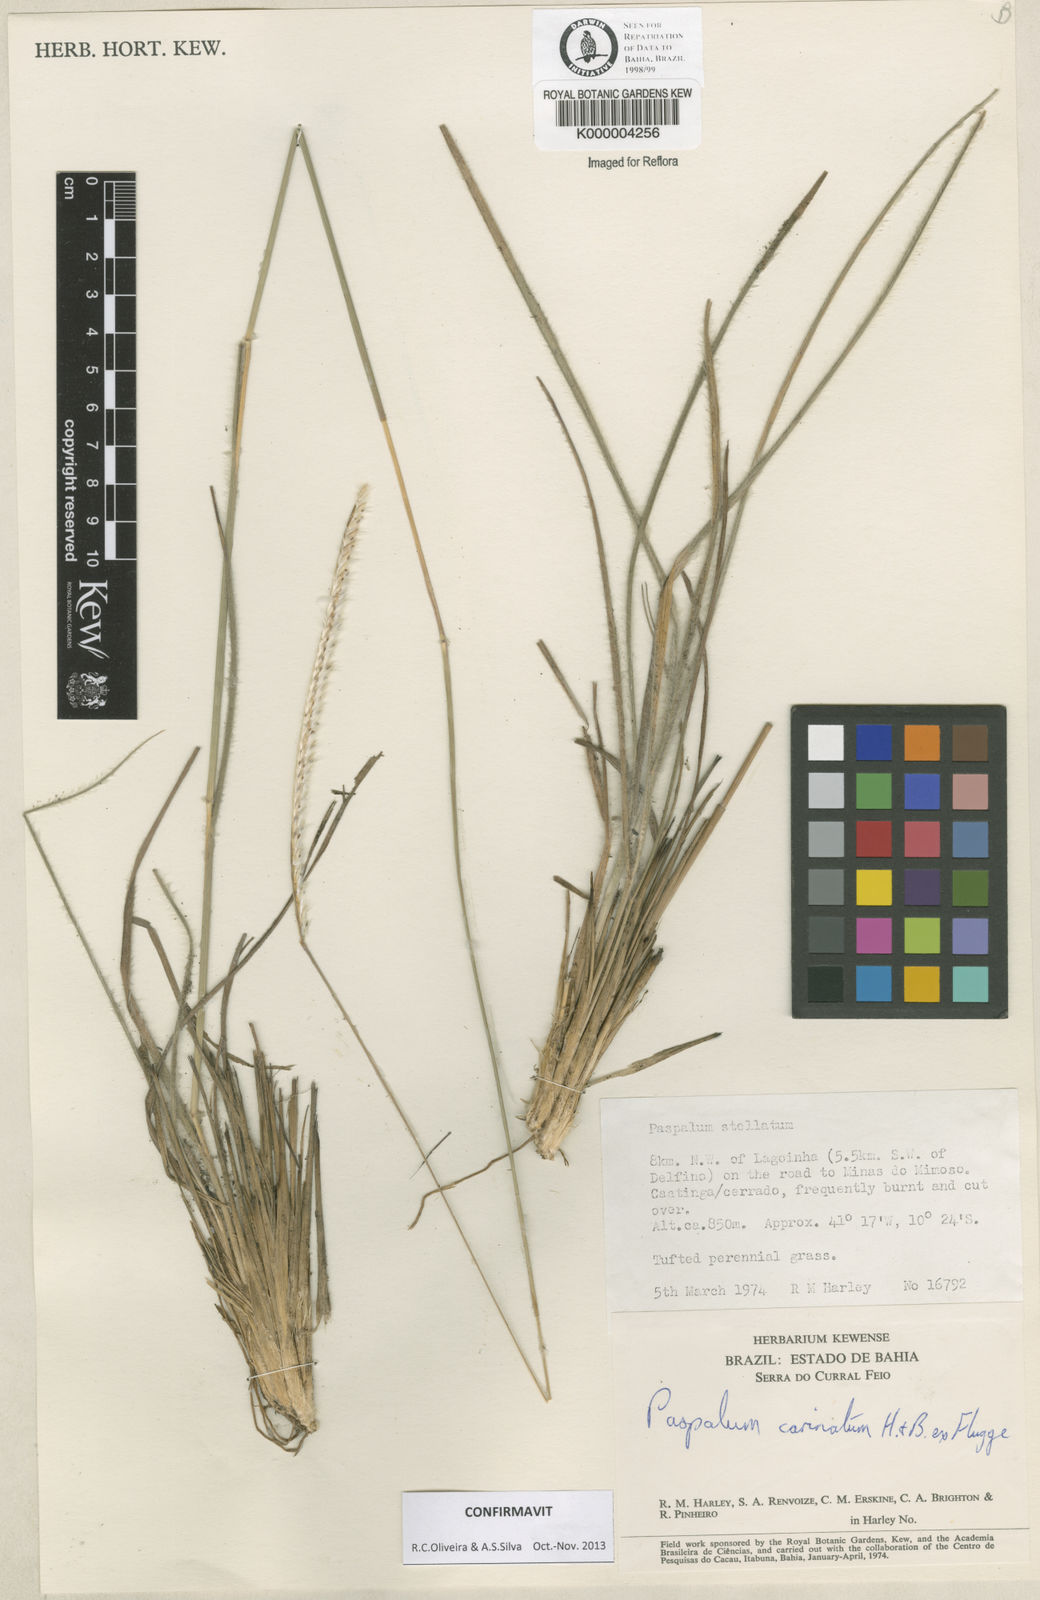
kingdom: Plantae
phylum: Tracheophyta
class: Liliopsida
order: Poales
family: Poaceae
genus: Paspalum
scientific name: Paspalum carinatum
